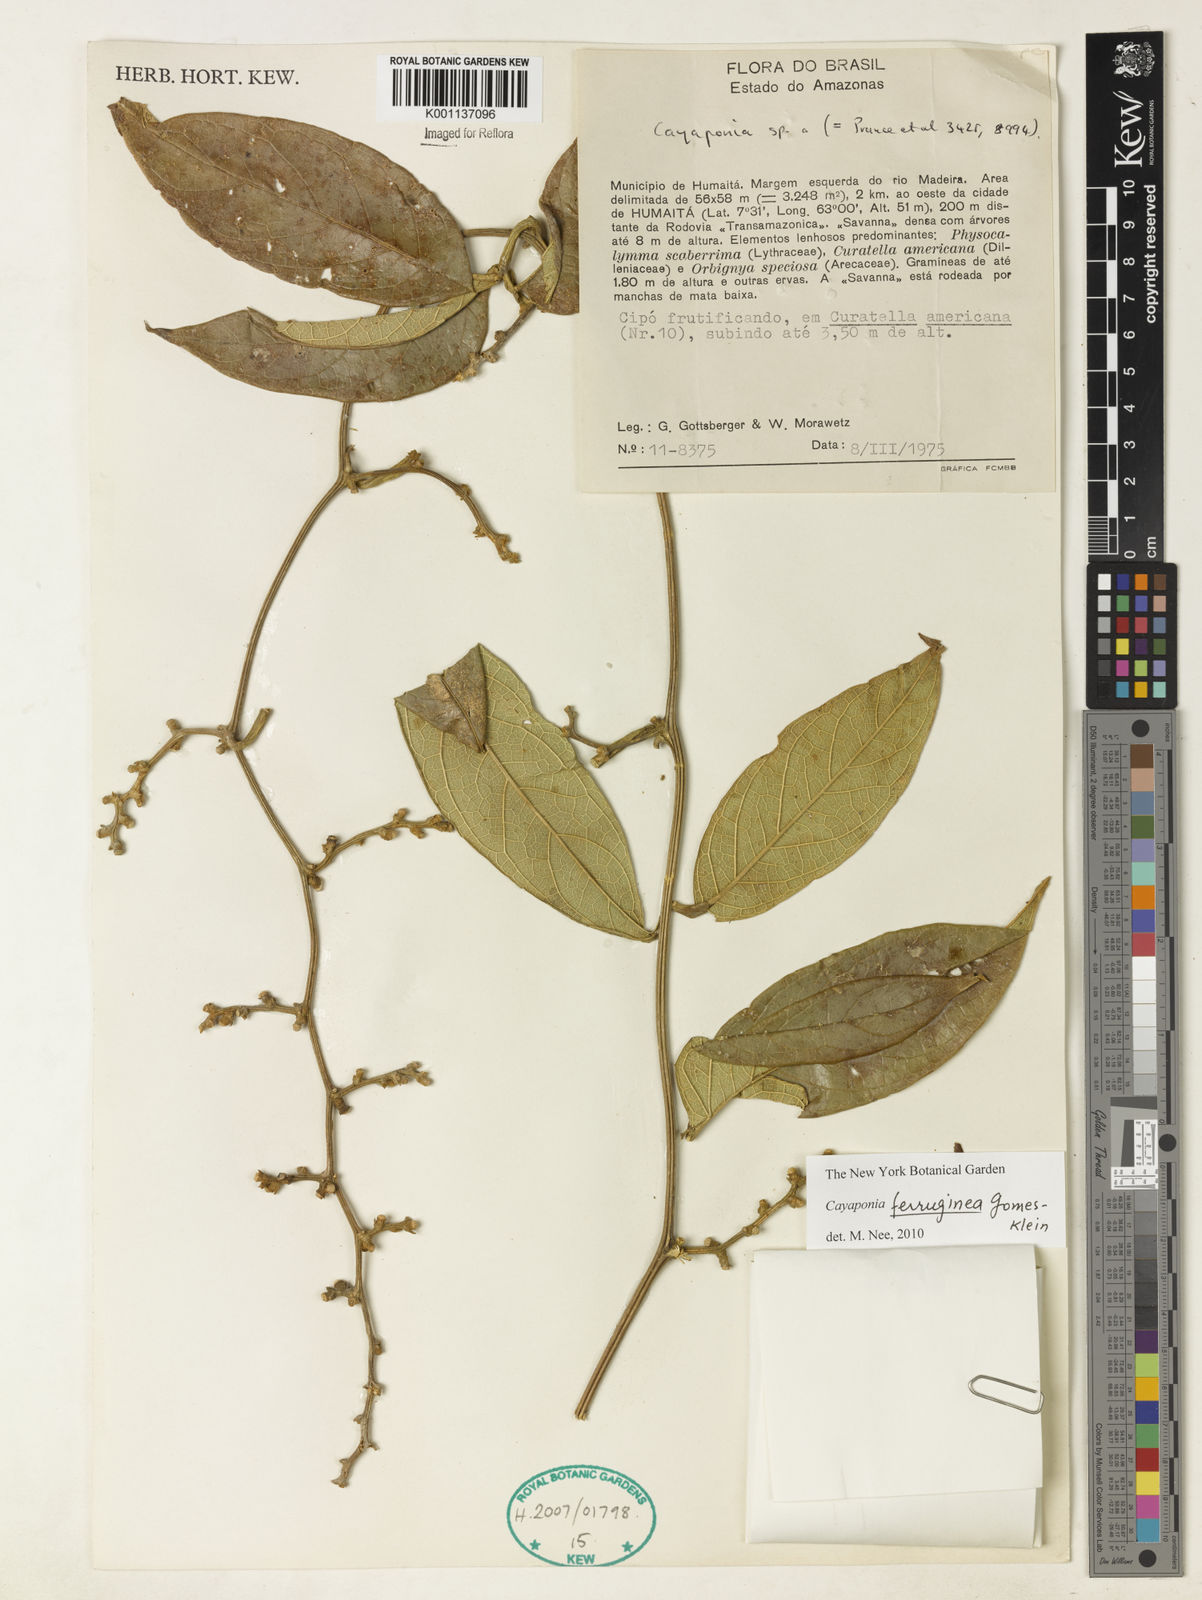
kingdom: Plantae
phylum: Tracheophyta
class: Magnoliopsida
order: Cucurbitales
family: Cucurbitaceae
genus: Cayaponia
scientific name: Cayaponia ferruginea
